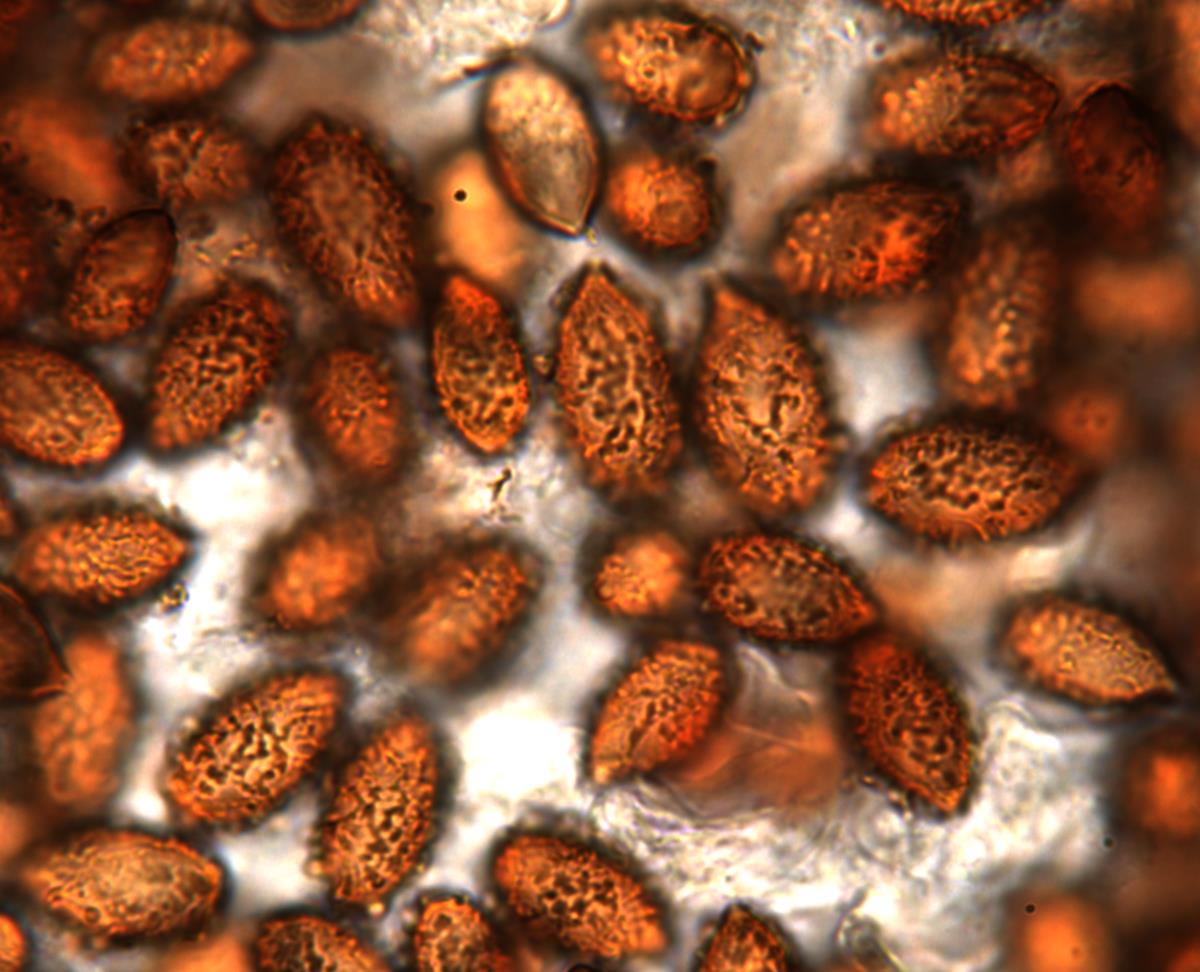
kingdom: Fungi
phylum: Basidiomycota
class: Agaricomycetes
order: Agaricales
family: Cortinariaceae
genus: Cortinarius
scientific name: Cortinarius beeverorum
